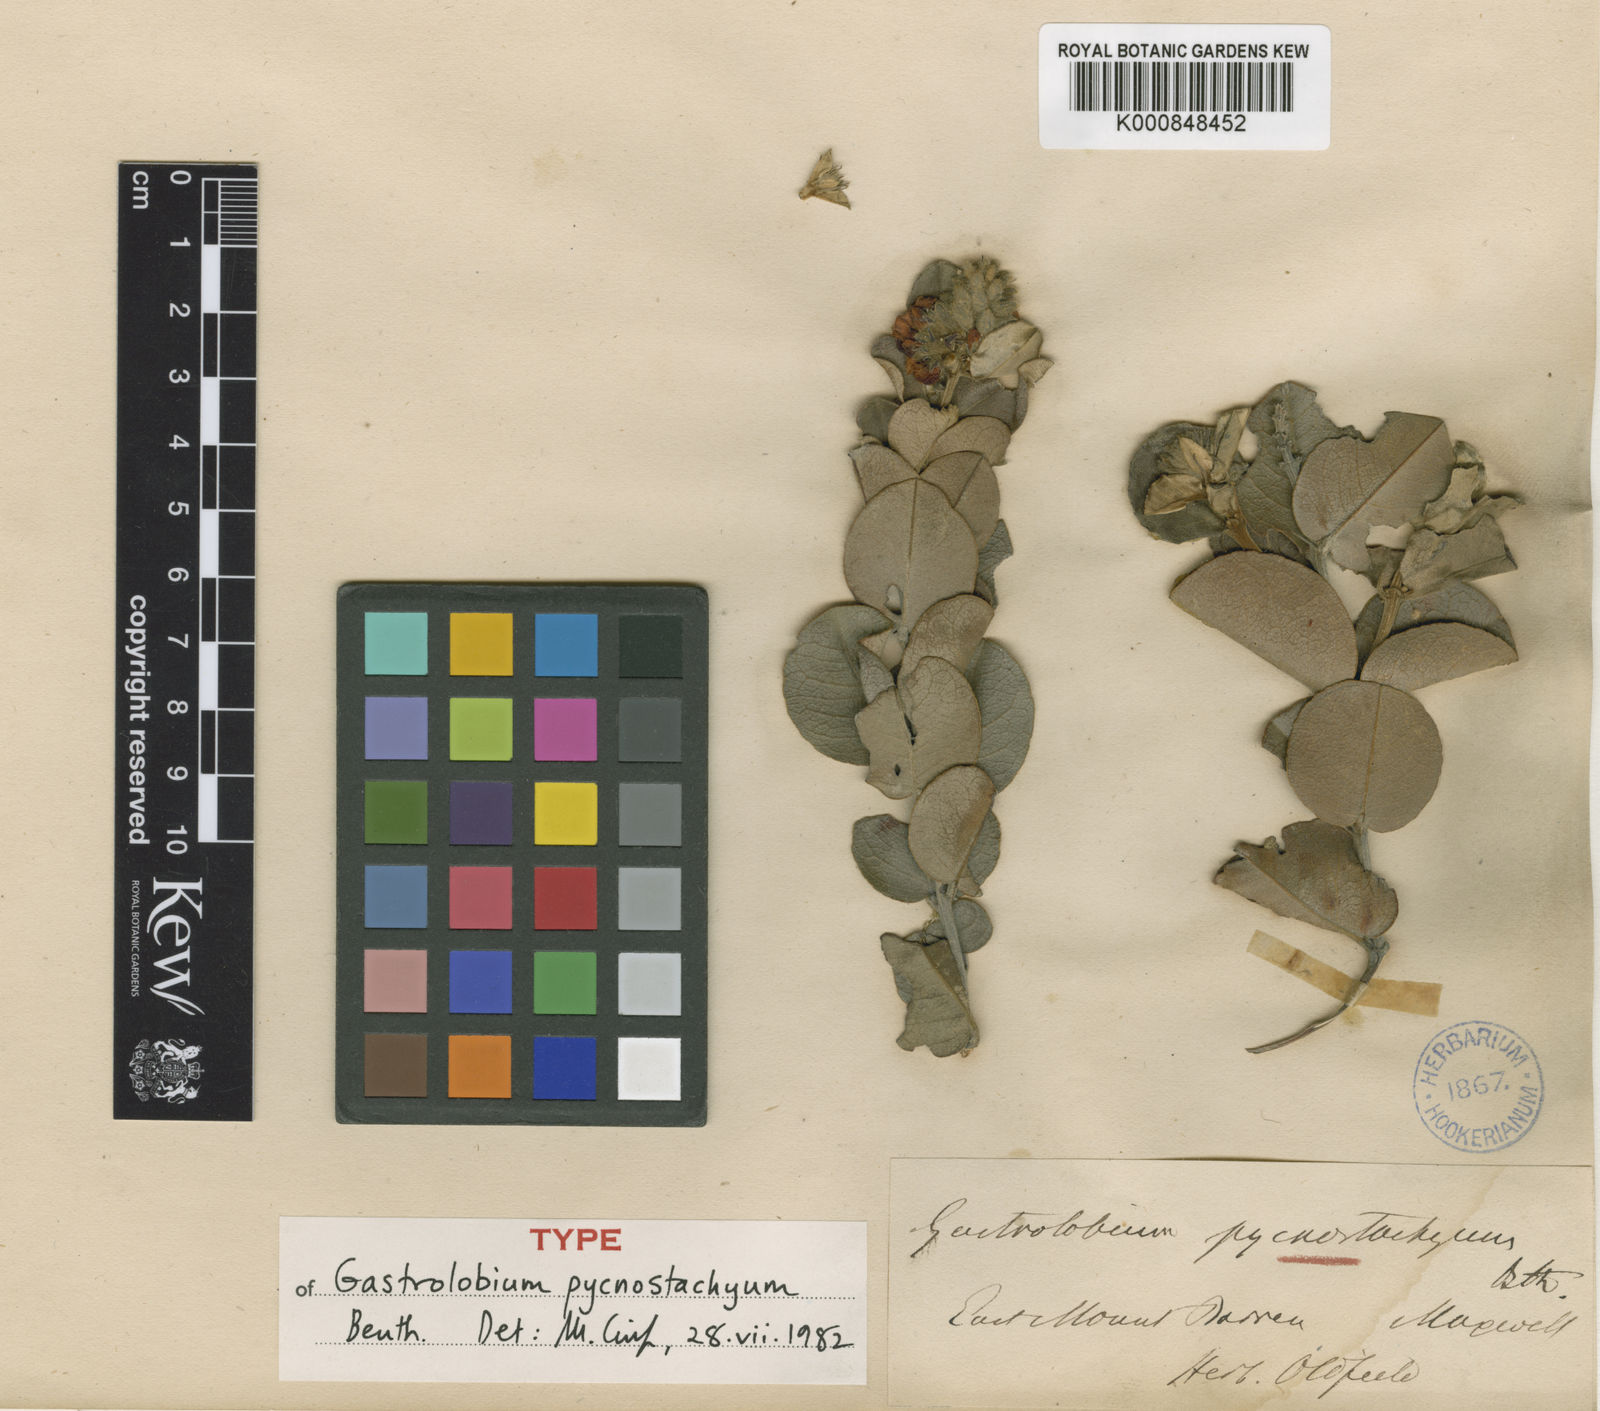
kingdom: Plantae
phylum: Tracheophyta
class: Magnoliopsida
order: Fabales
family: Fabaceae
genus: Gastrolobium
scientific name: Gastrolobium pycnostachyum
